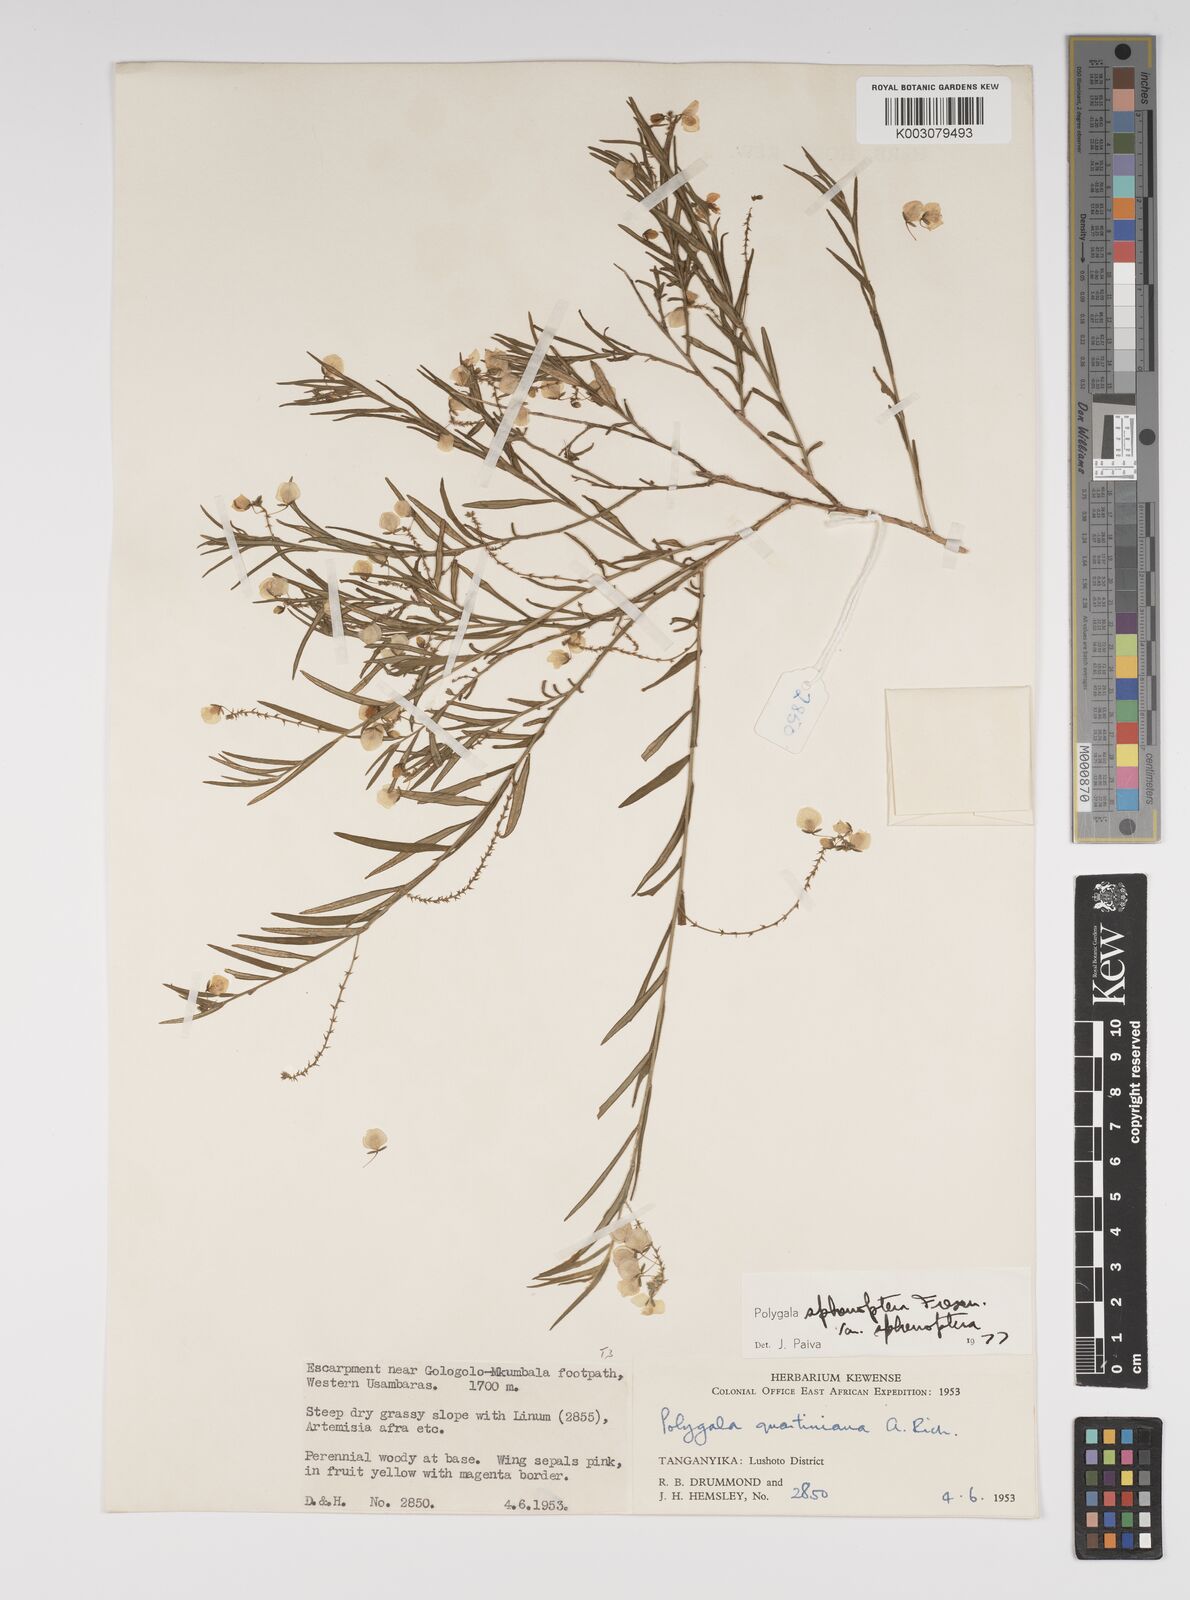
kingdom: Plantae
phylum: Tracheophyta
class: Magnoliopsida
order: Fabales
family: Polygalaceae
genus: Polygala
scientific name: Polygala sphenoptera
